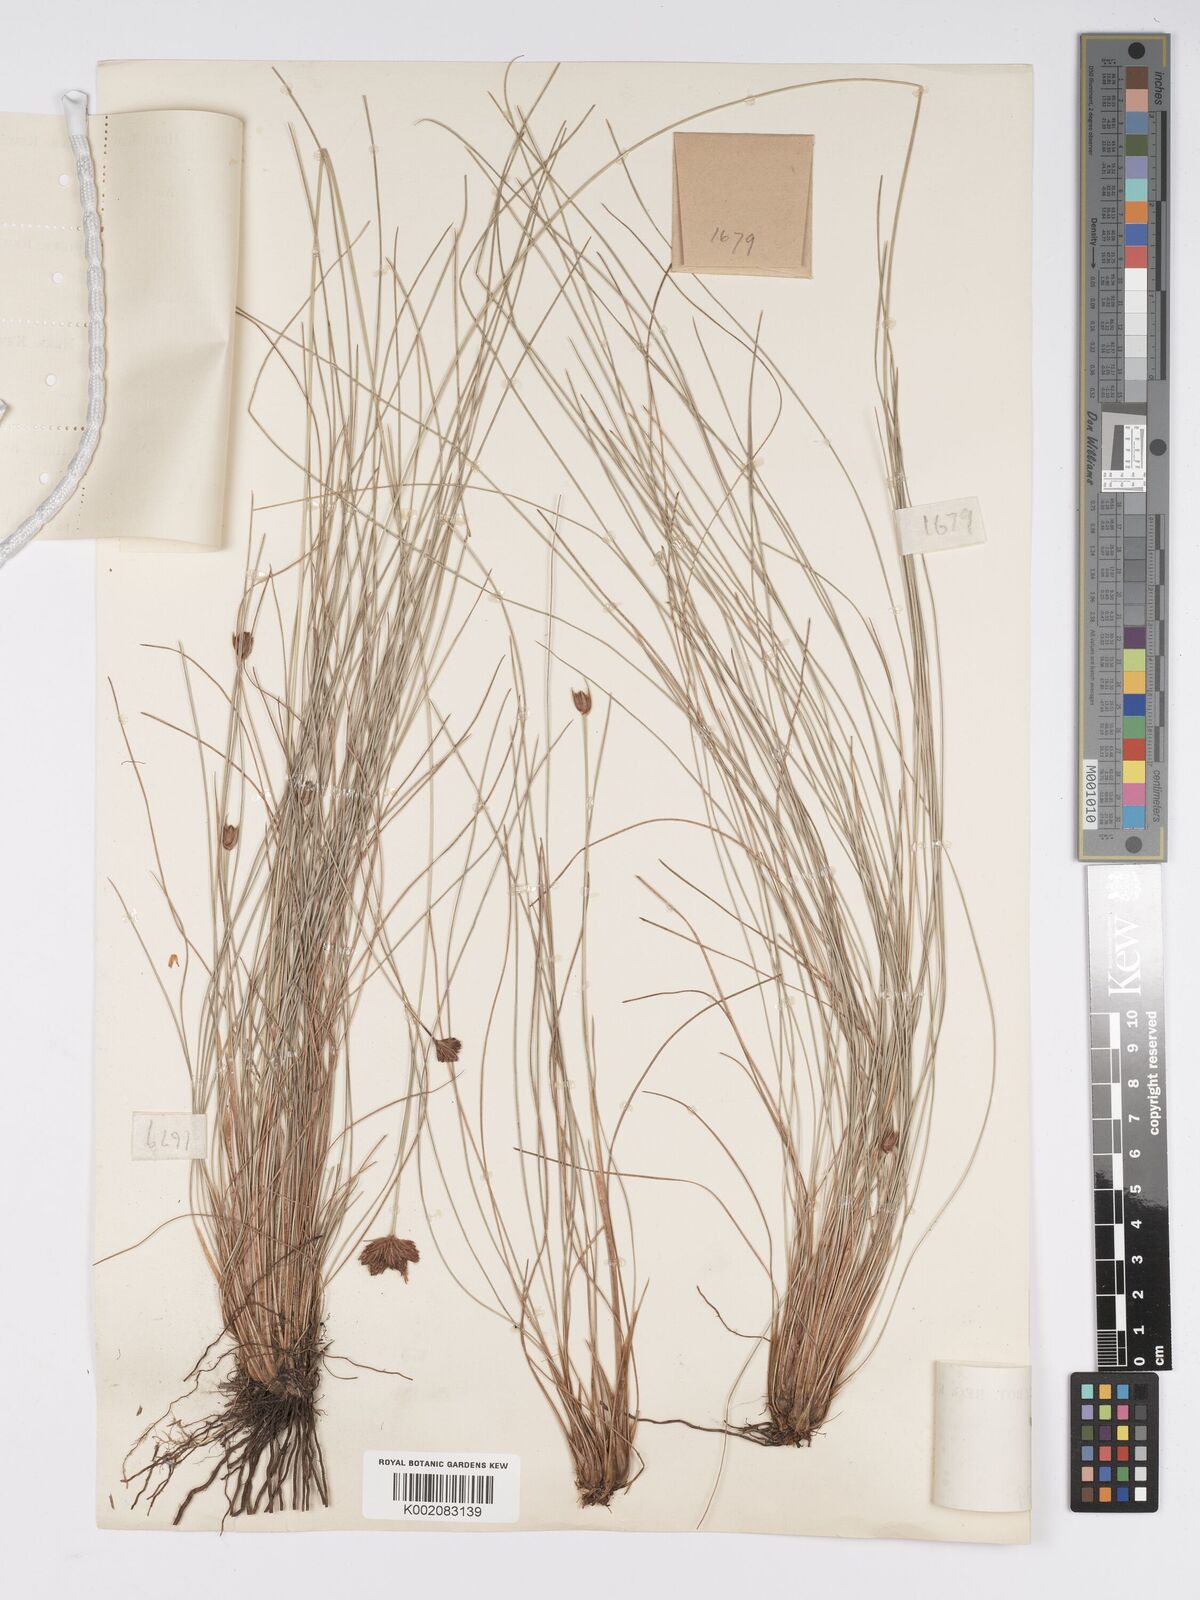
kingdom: Plantae
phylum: Tracheophyta
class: Liliopsida
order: Poales
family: Cyperaceae
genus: Bulbostylis
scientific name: Bulbostylis schoenoides
